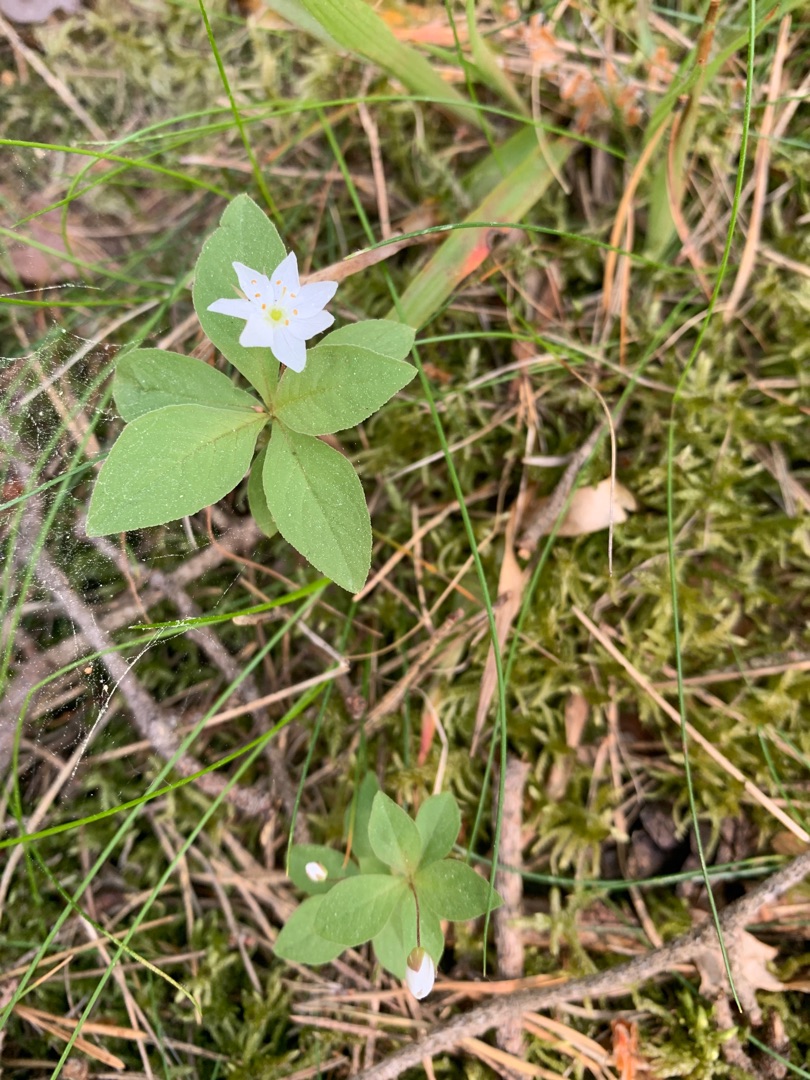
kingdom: Plantae
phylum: Tracheophyta
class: Magnoliopsida
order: Ericales
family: Primulaceae
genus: Lysimachia
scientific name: Lysimachia europaea
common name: Skovstjerne
